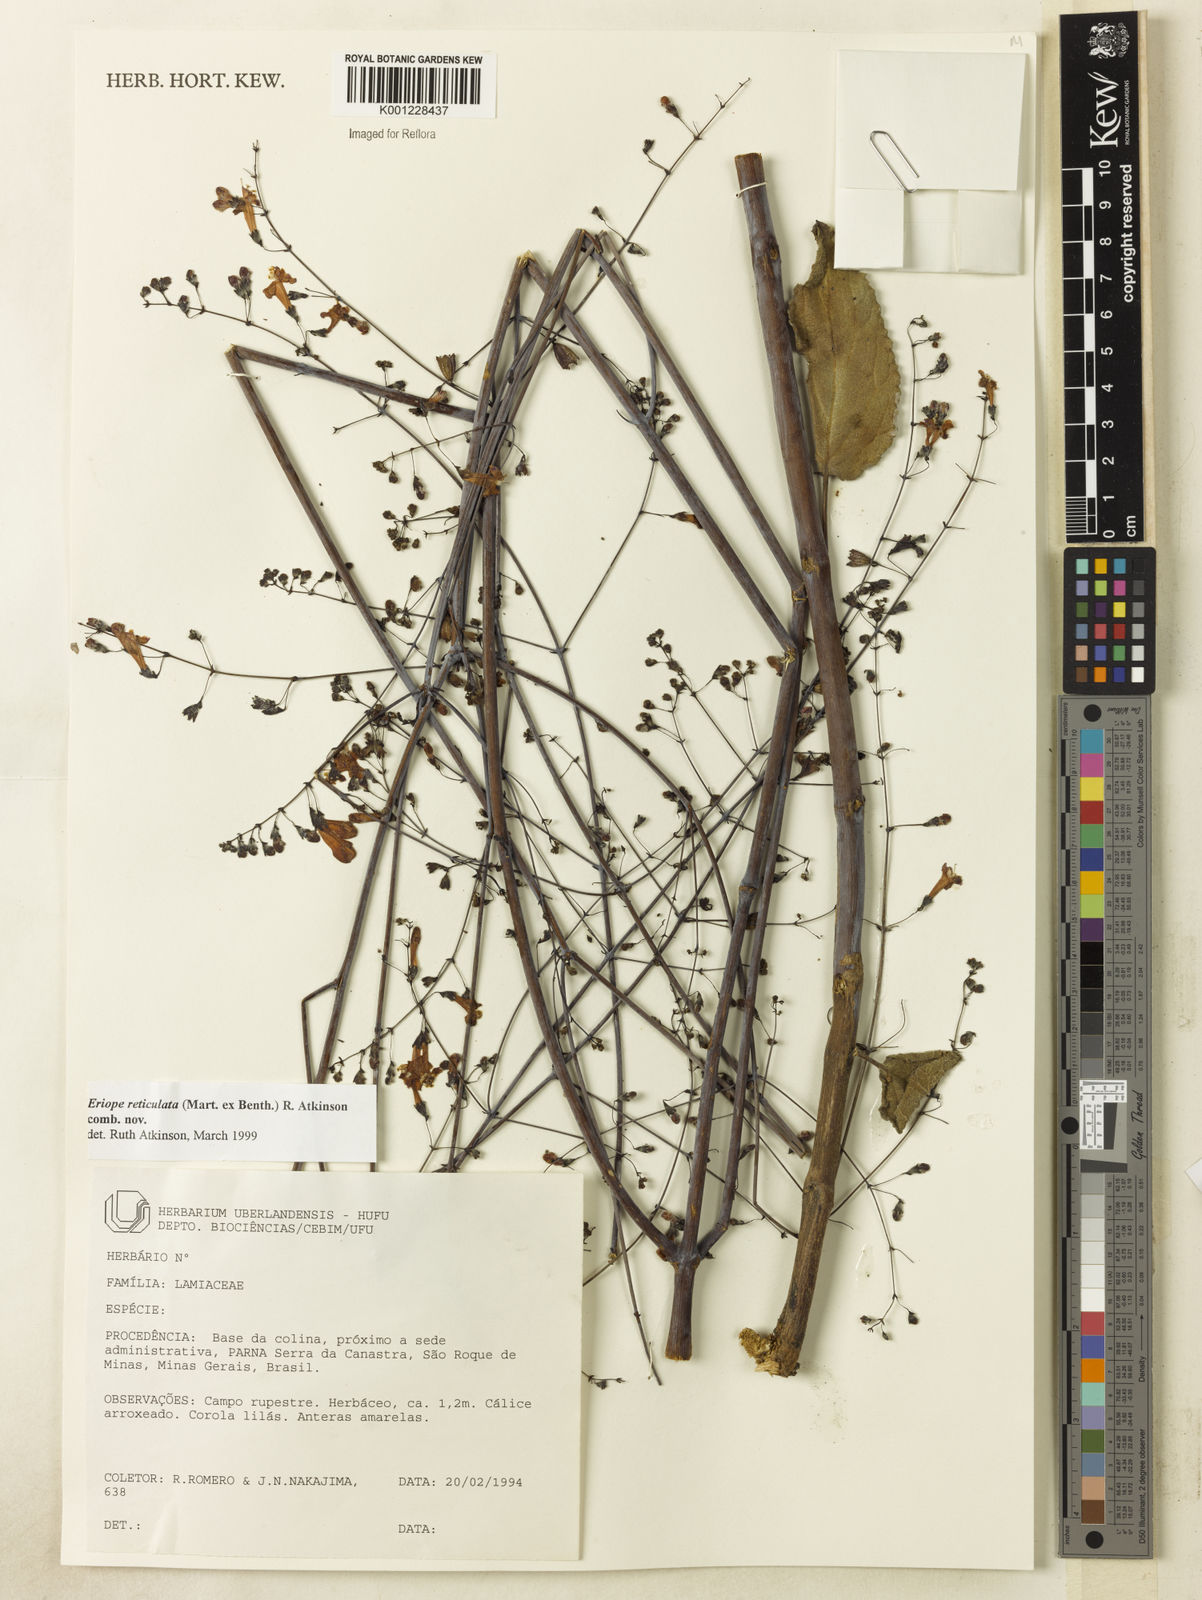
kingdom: Plantae
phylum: Tracheophyta
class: Magnoliopsida
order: Lamiales
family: Lamiaceae
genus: Hypenia
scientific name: Hypenia reticulata
